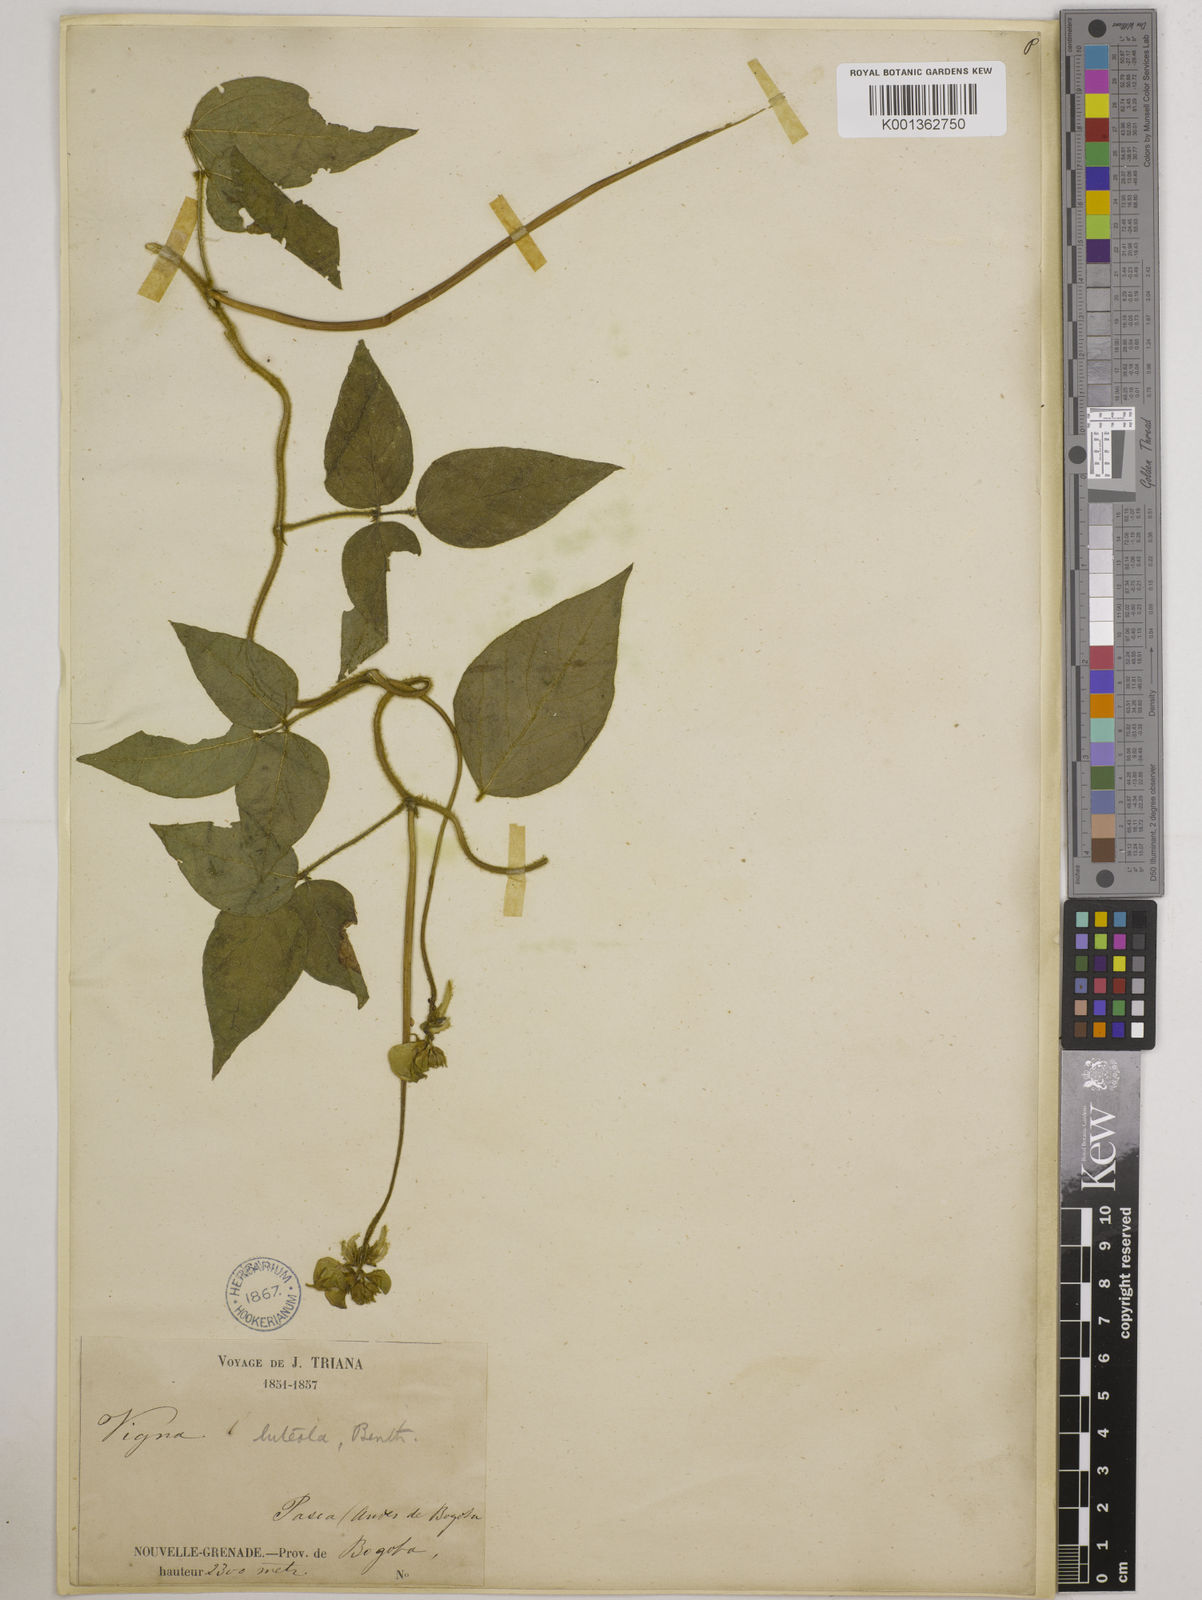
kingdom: Plantae
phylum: Tracheophyta
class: Magnoliopsida
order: Fabales
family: Fabaceae
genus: Vigna
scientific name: Vigna luteola
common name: Hairypod cowpea
